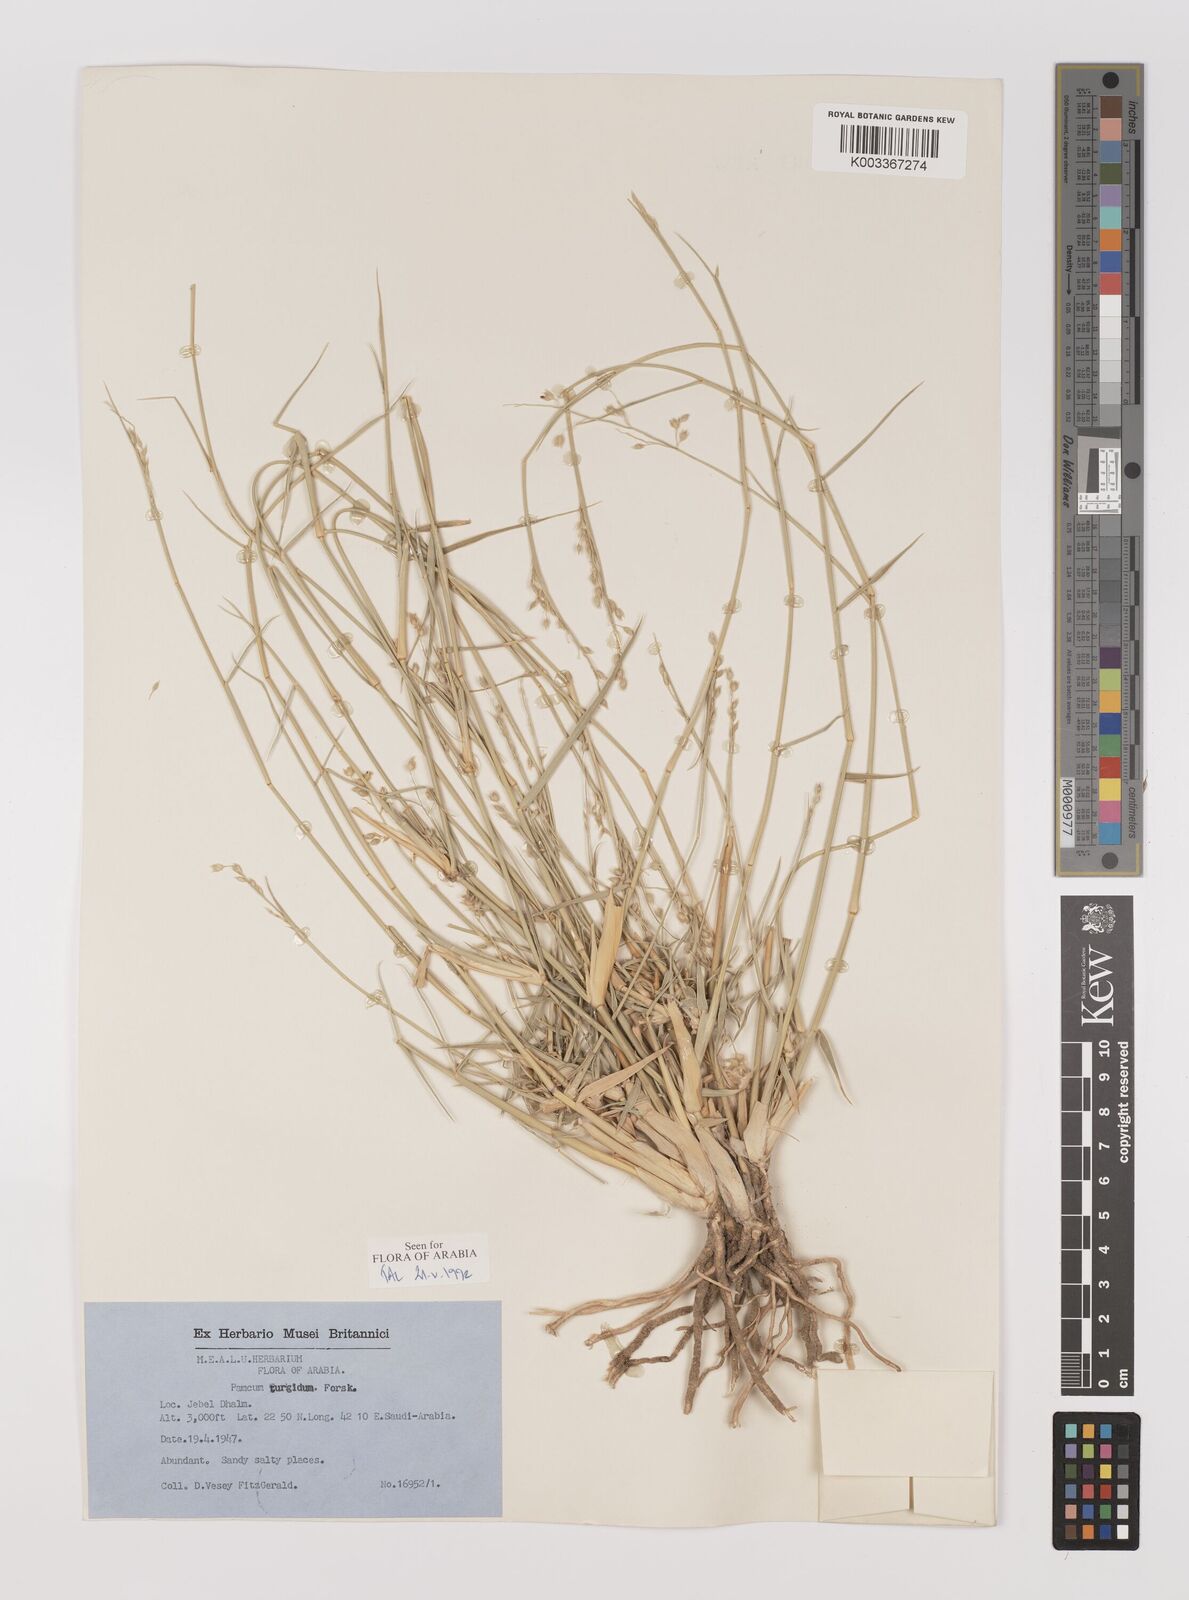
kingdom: Plantae
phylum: Tracheophyta
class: Liliopsida
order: Poales
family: Poaceae
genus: Panicum
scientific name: Panicum turgidum
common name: Desert grass
